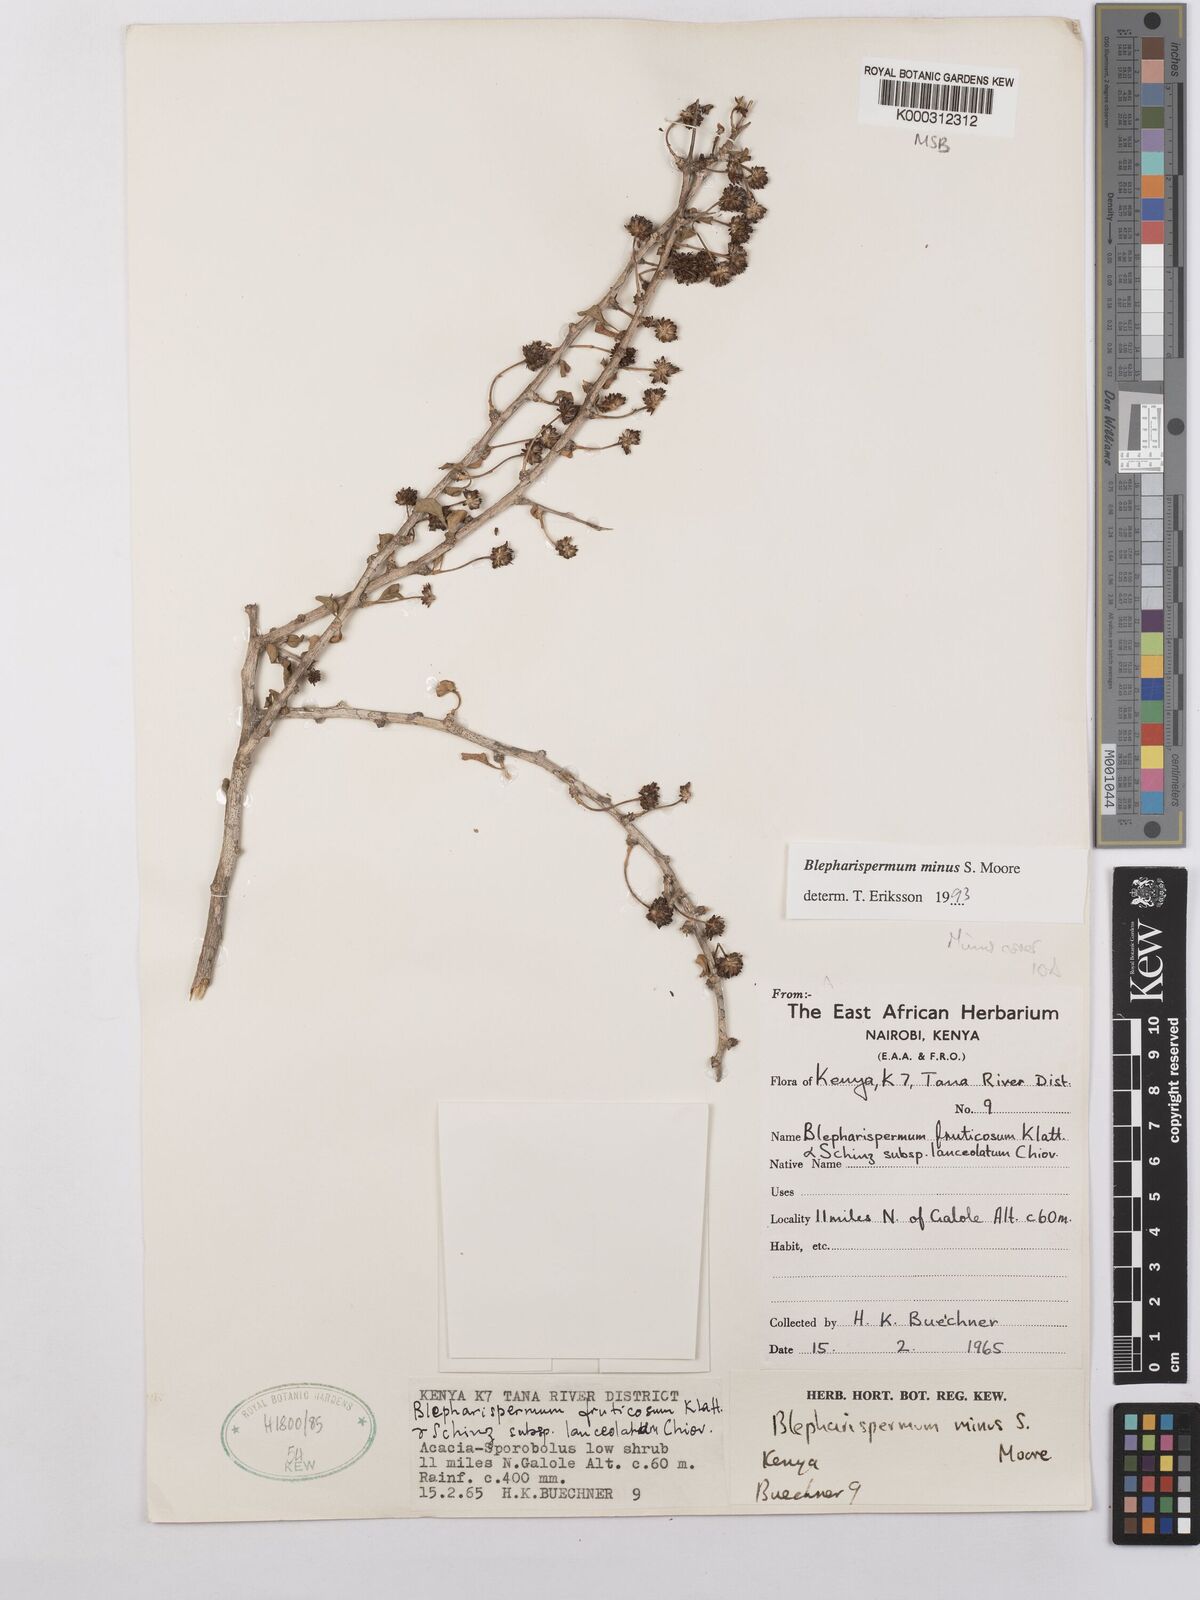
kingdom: Plantae
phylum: Tracheophyta
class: Magnoliopsida
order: Asterales
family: Asteraceae
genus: Blepharispermum
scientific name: Blepharispermum minus
